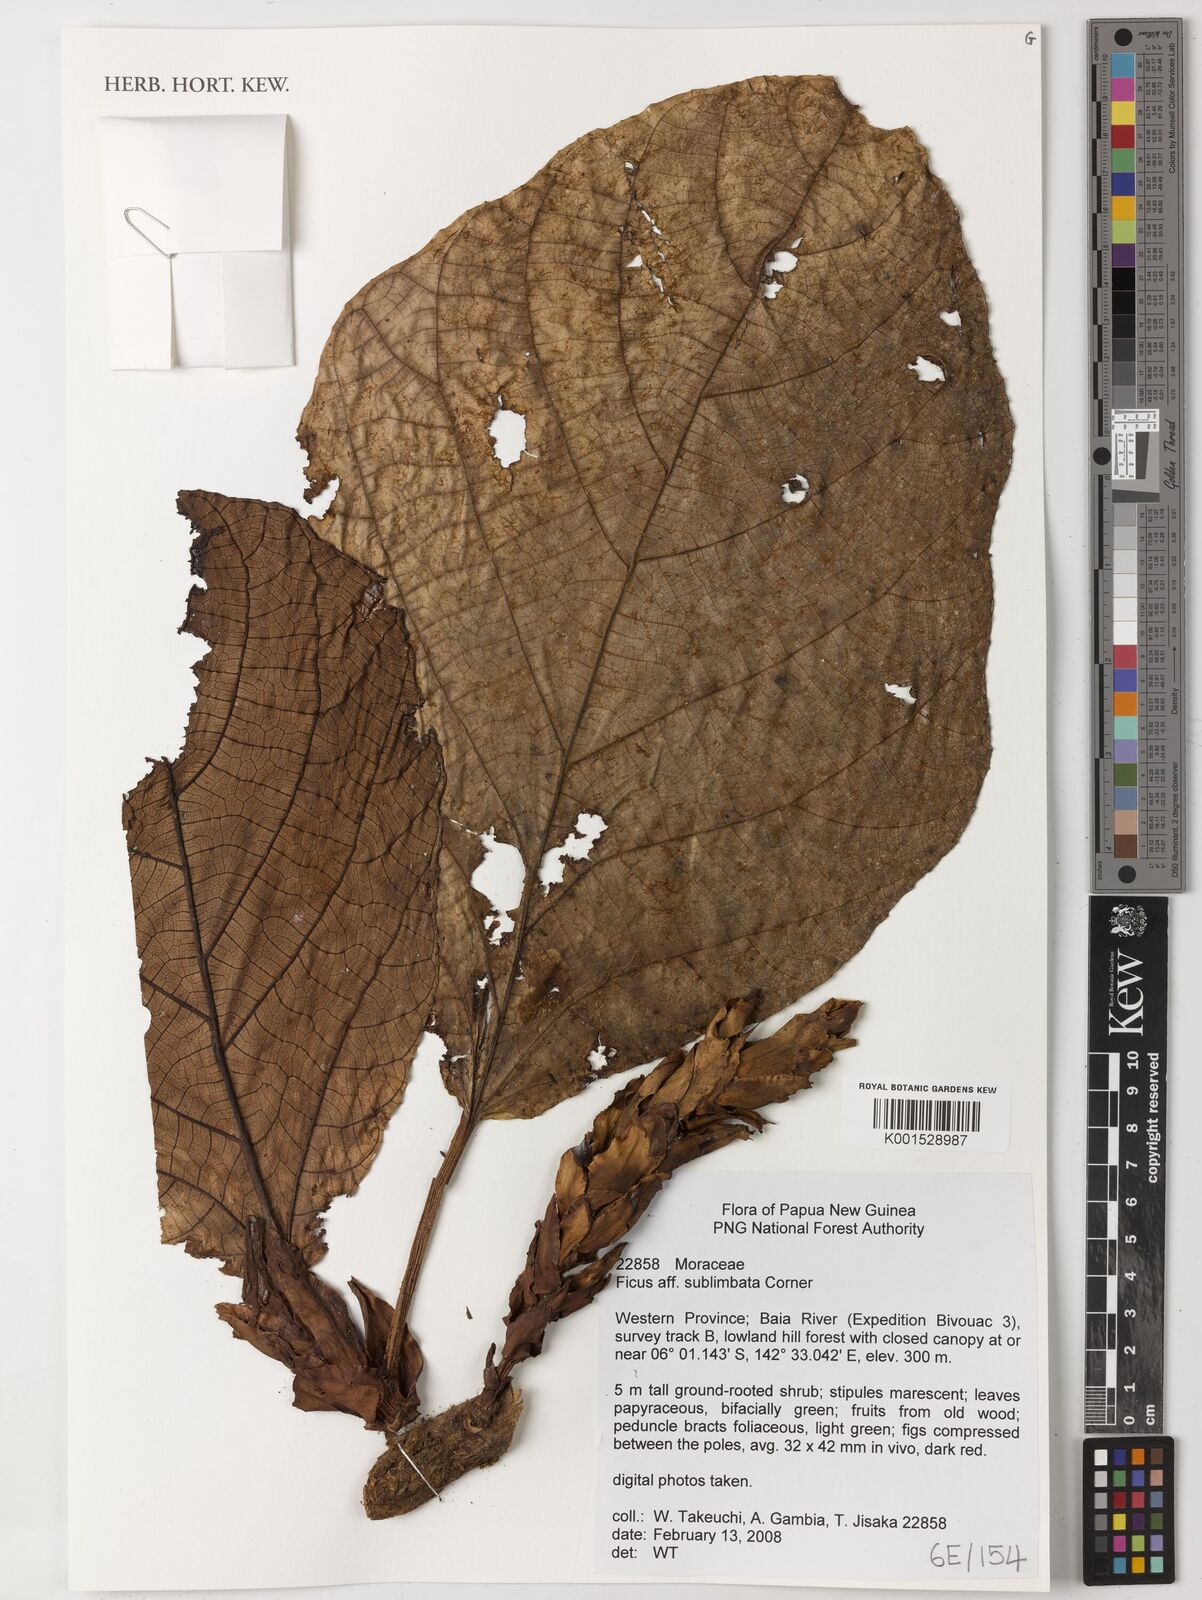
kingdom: Plantae
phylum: Tracheophyta
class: Magnoliopsida
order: Rosales
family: Moraceae
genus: Ficus
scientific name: Ficus sublimbata
